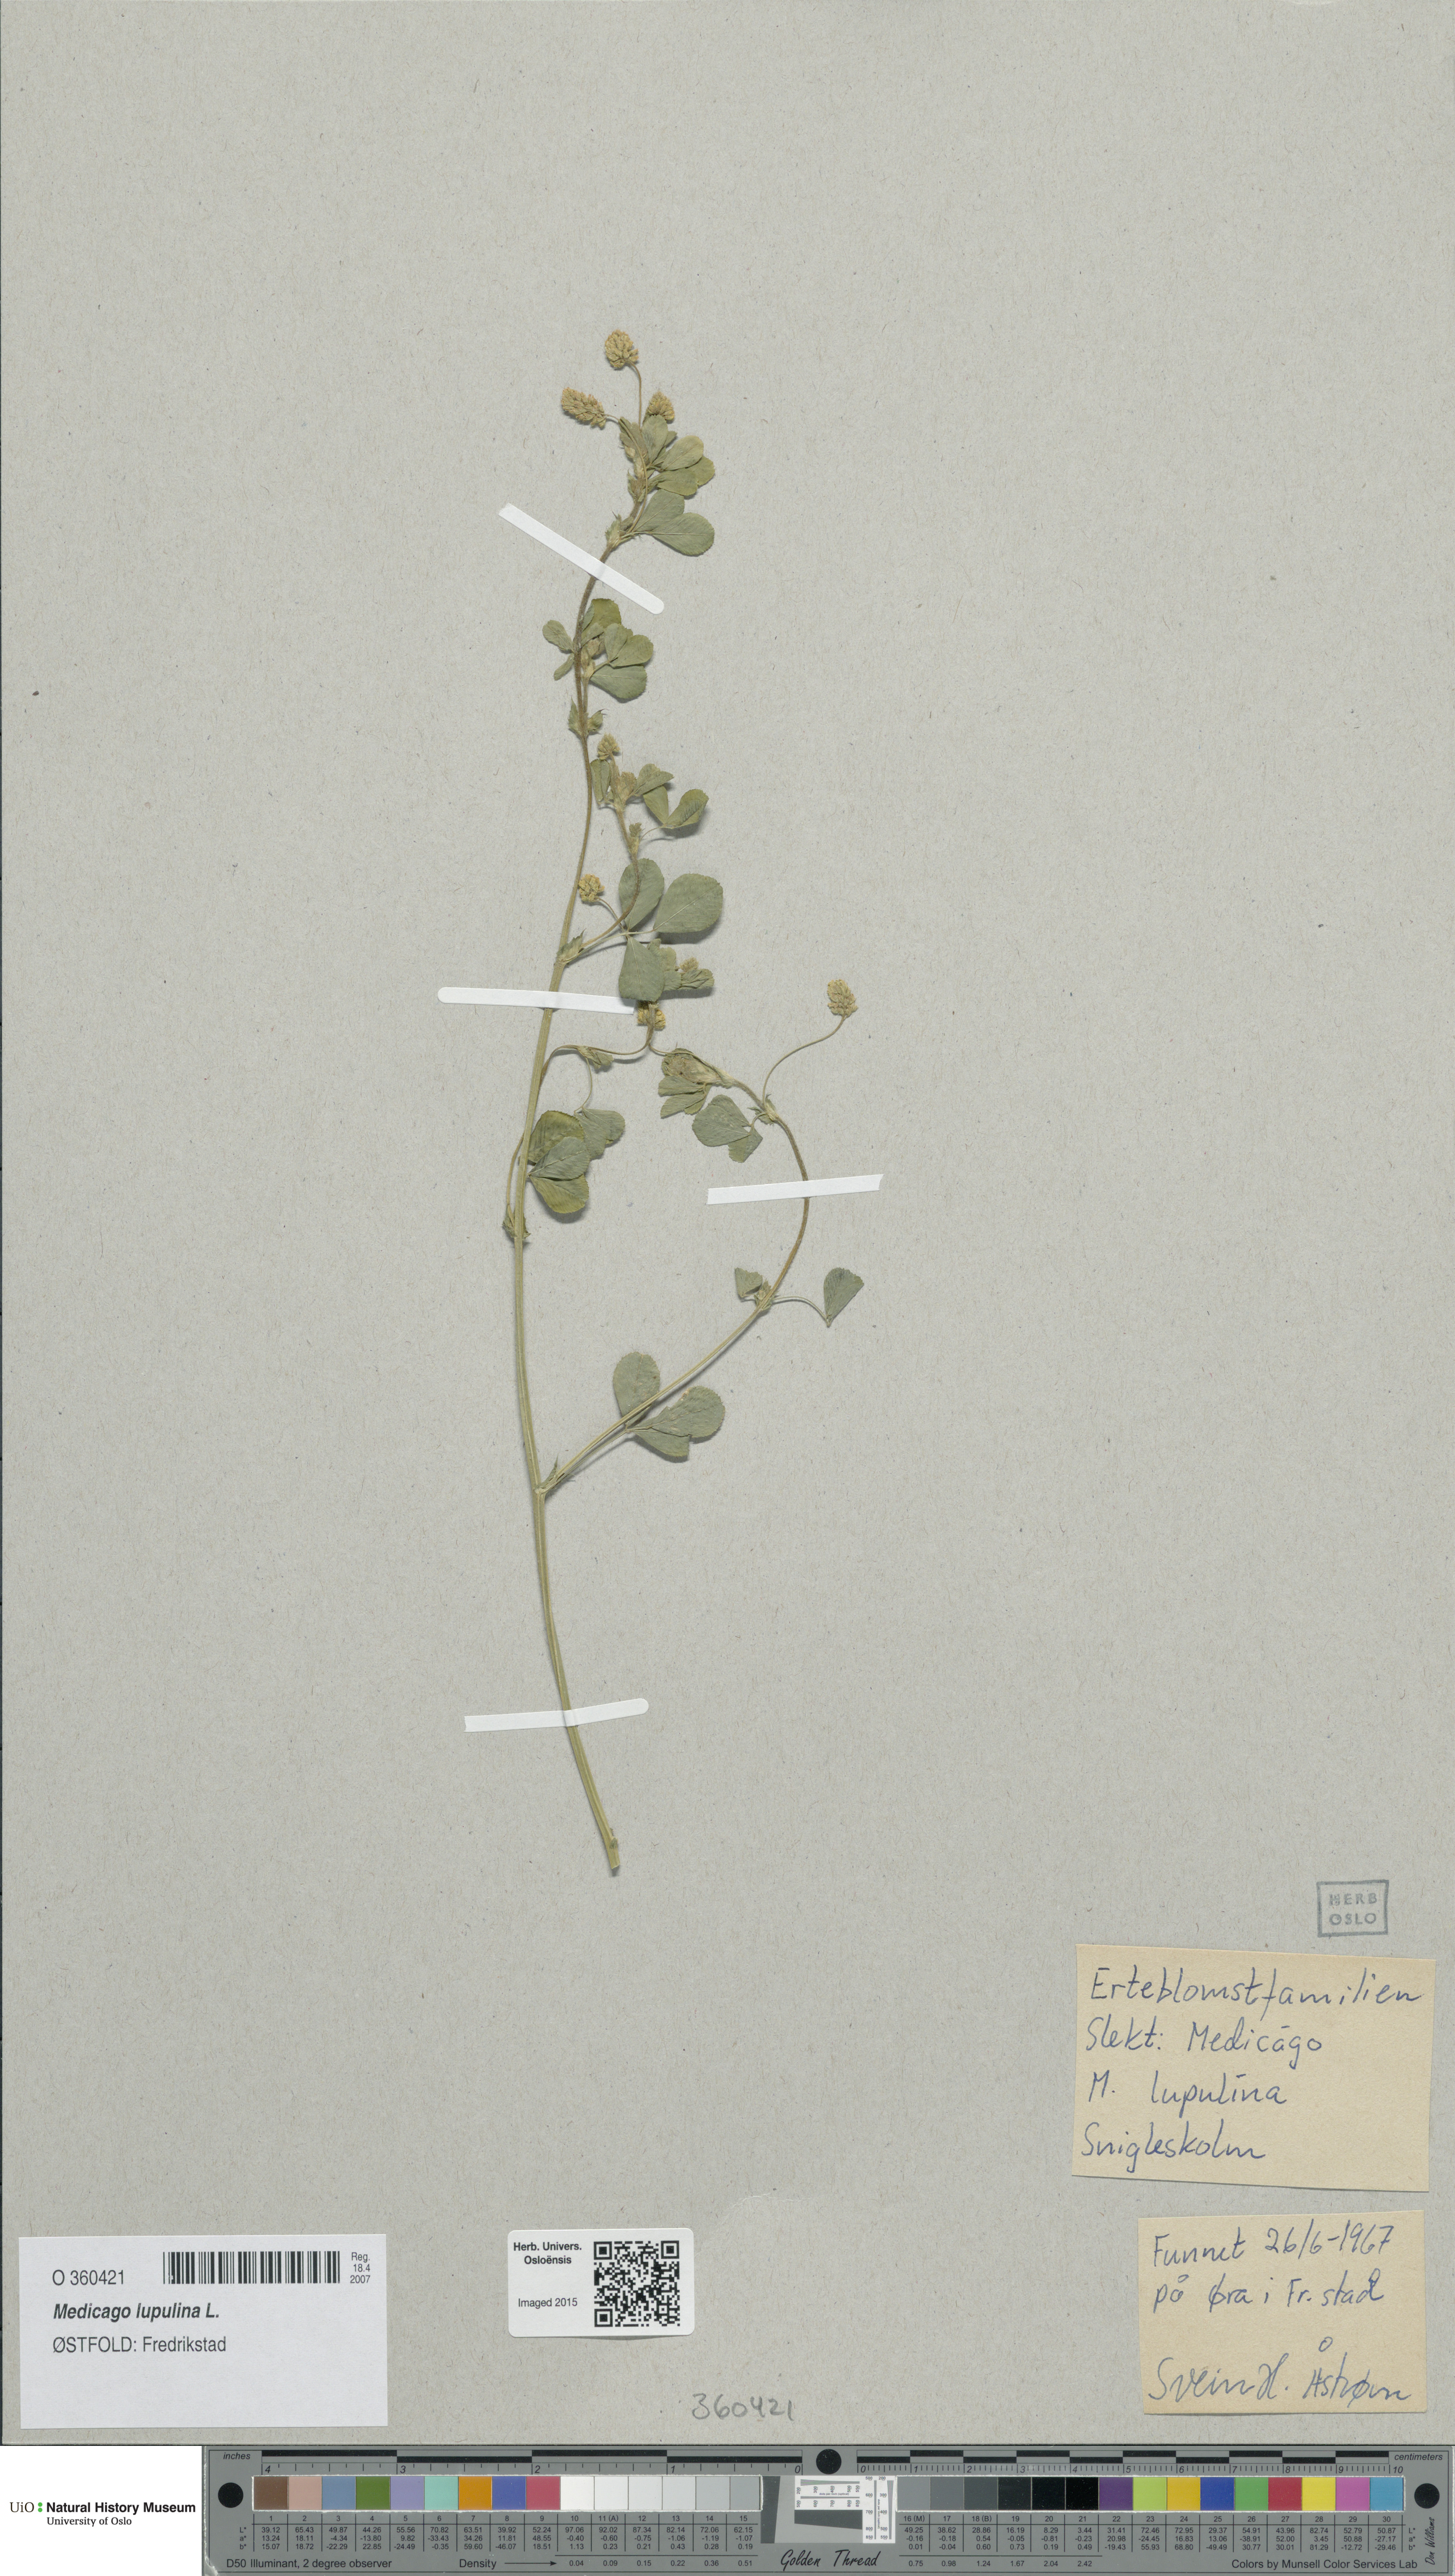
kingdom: Plantae
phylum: Tracheophyta
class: Magnoliopsida
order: Fabales
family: Fabaceae
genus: Medicago
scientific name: Medicago lupulina
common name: Black medick
